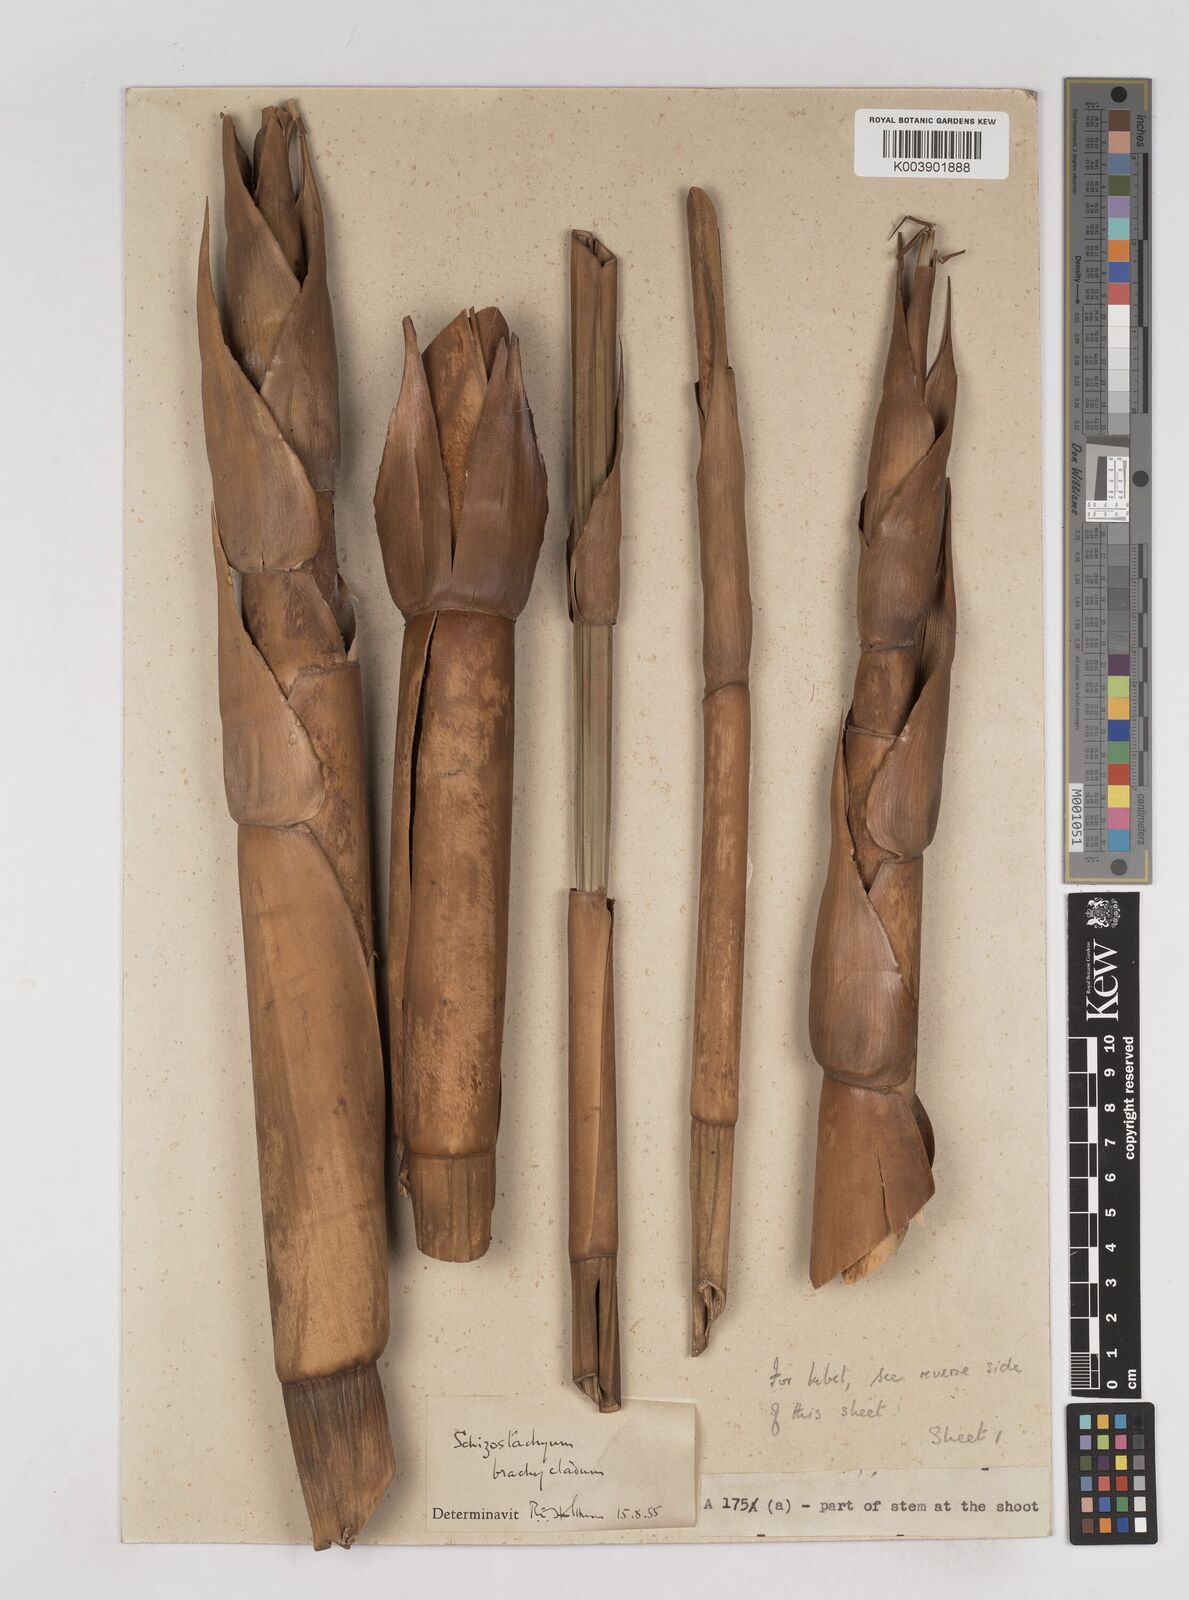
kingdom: Plantae
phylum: Tracheophyta
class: Liliopsida
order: Poales
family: Poaceae
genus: Schizostachyum
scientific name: Schizostachyum brachycladum
